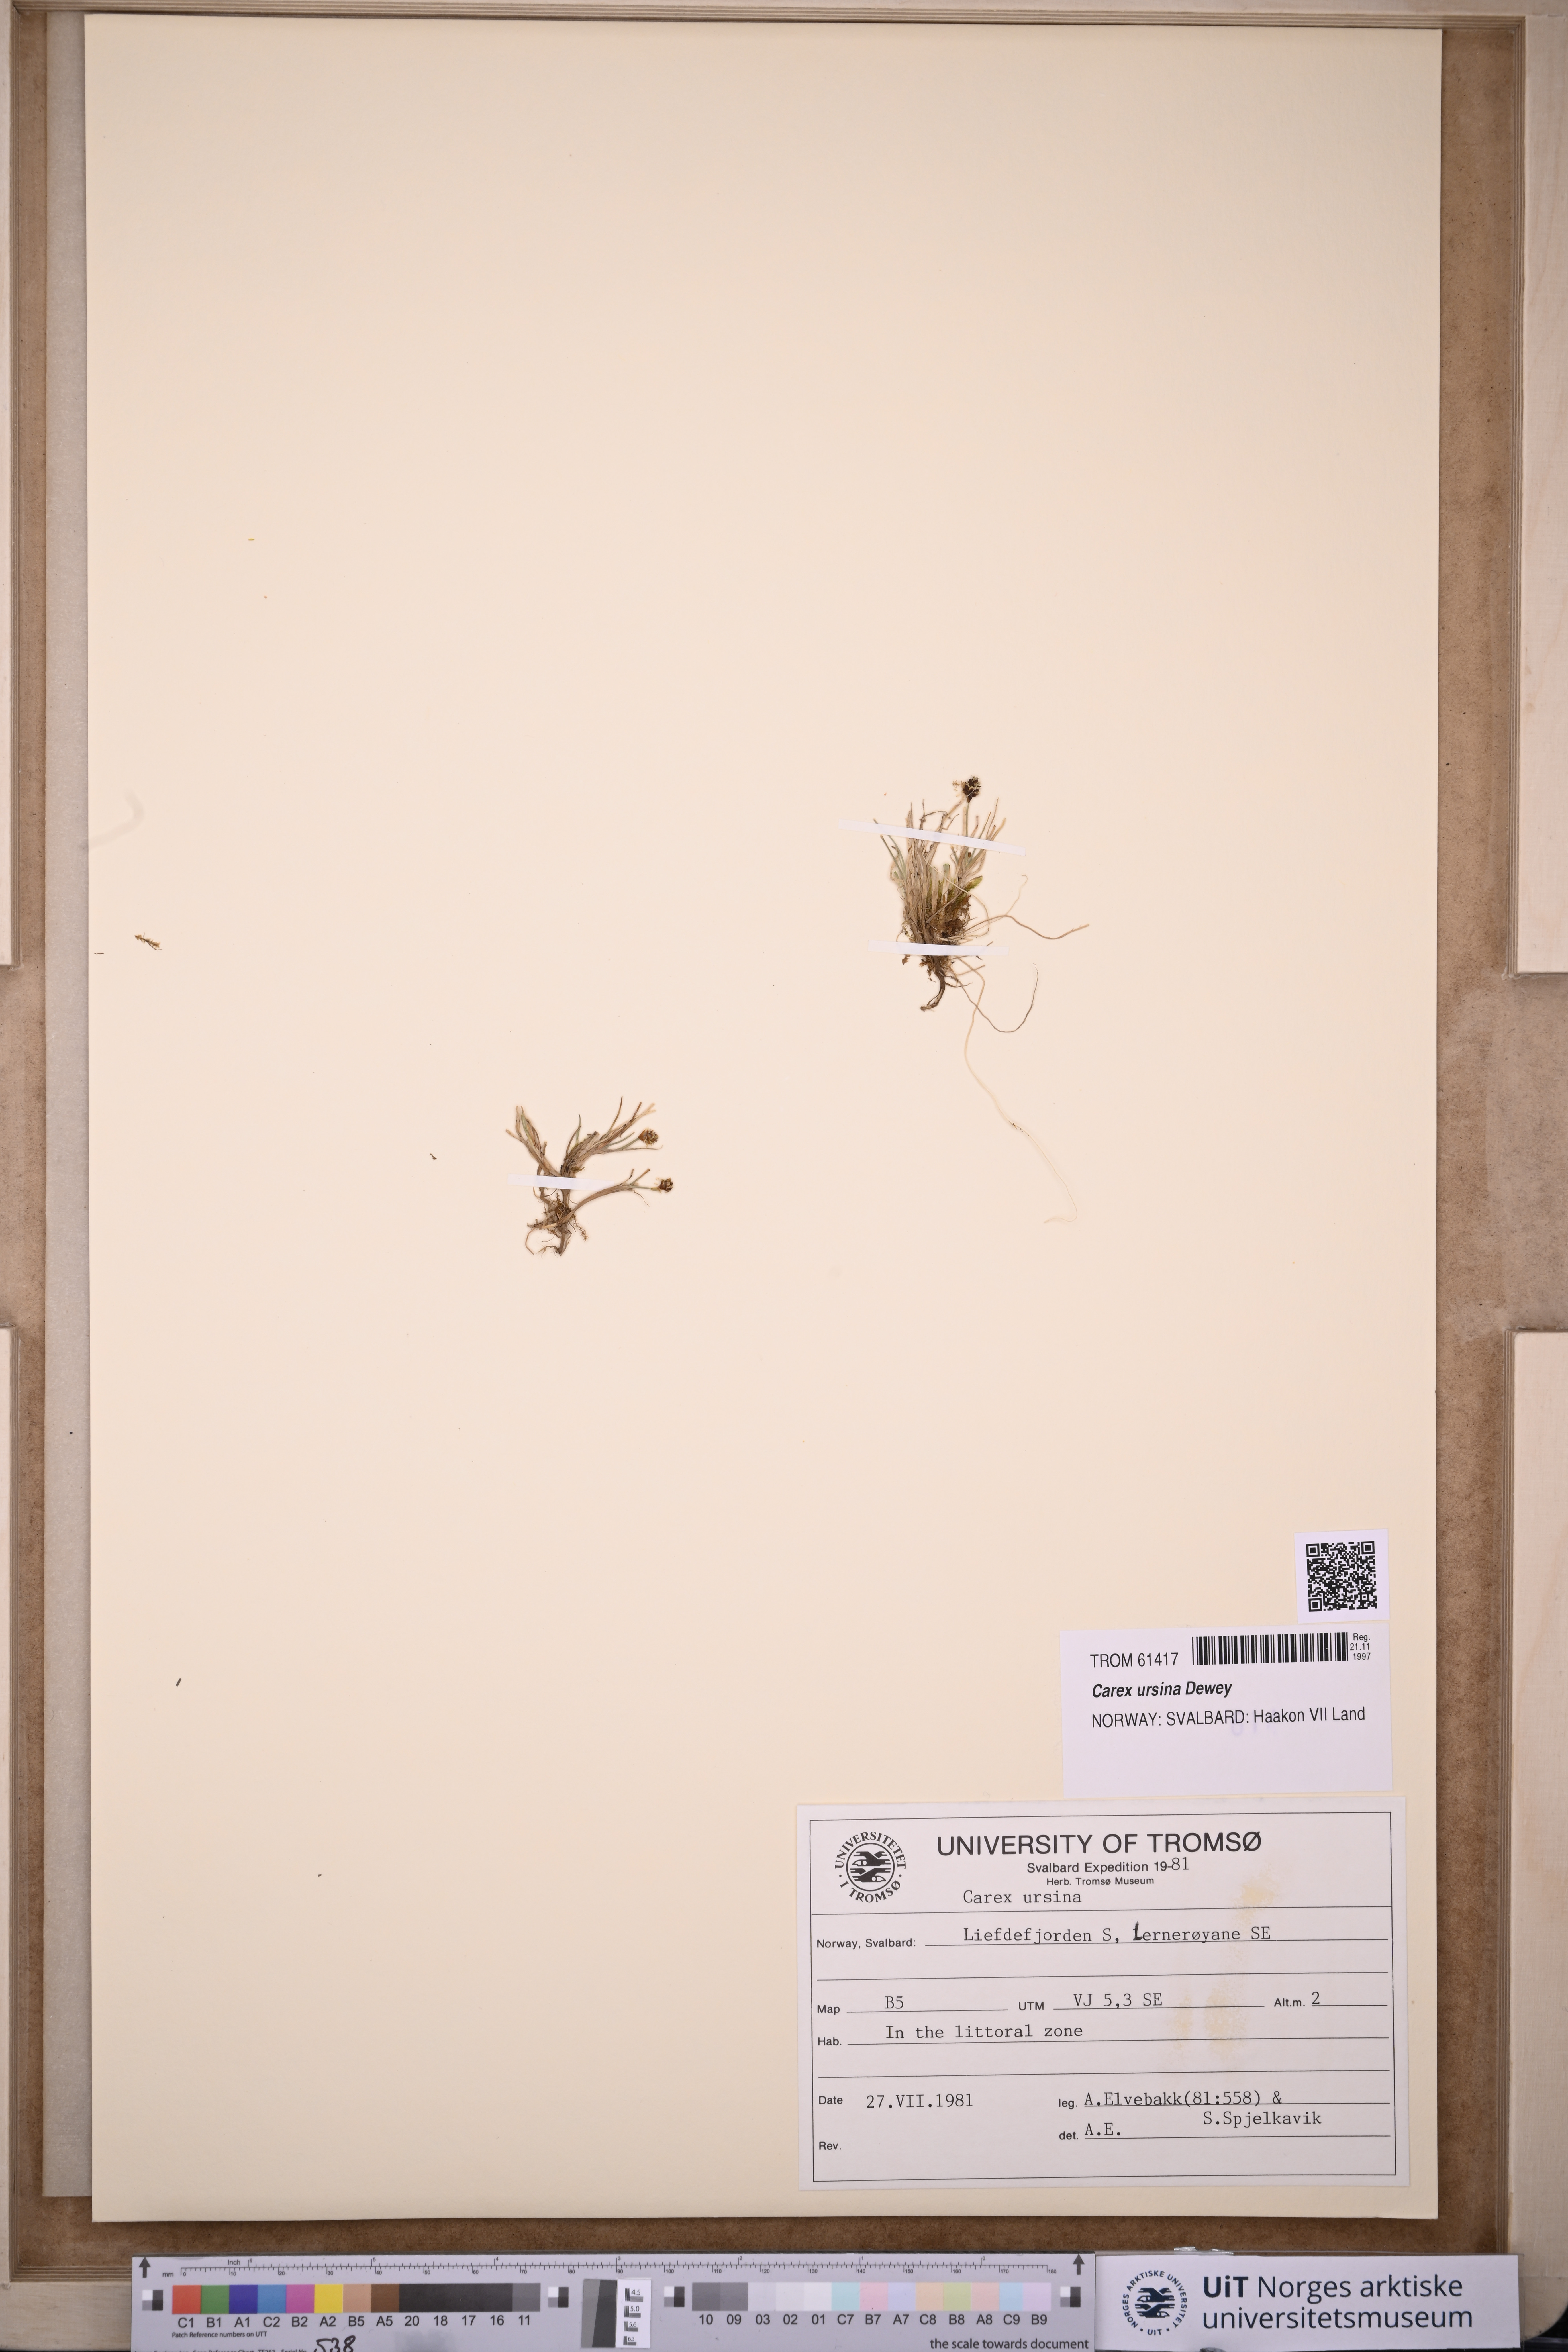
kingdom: Plantae
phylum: Tracheophyta
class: Liliopsida
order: Poales
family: Cyperaceae
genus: Carex
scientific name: Carex ursina
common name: Bear sedge
